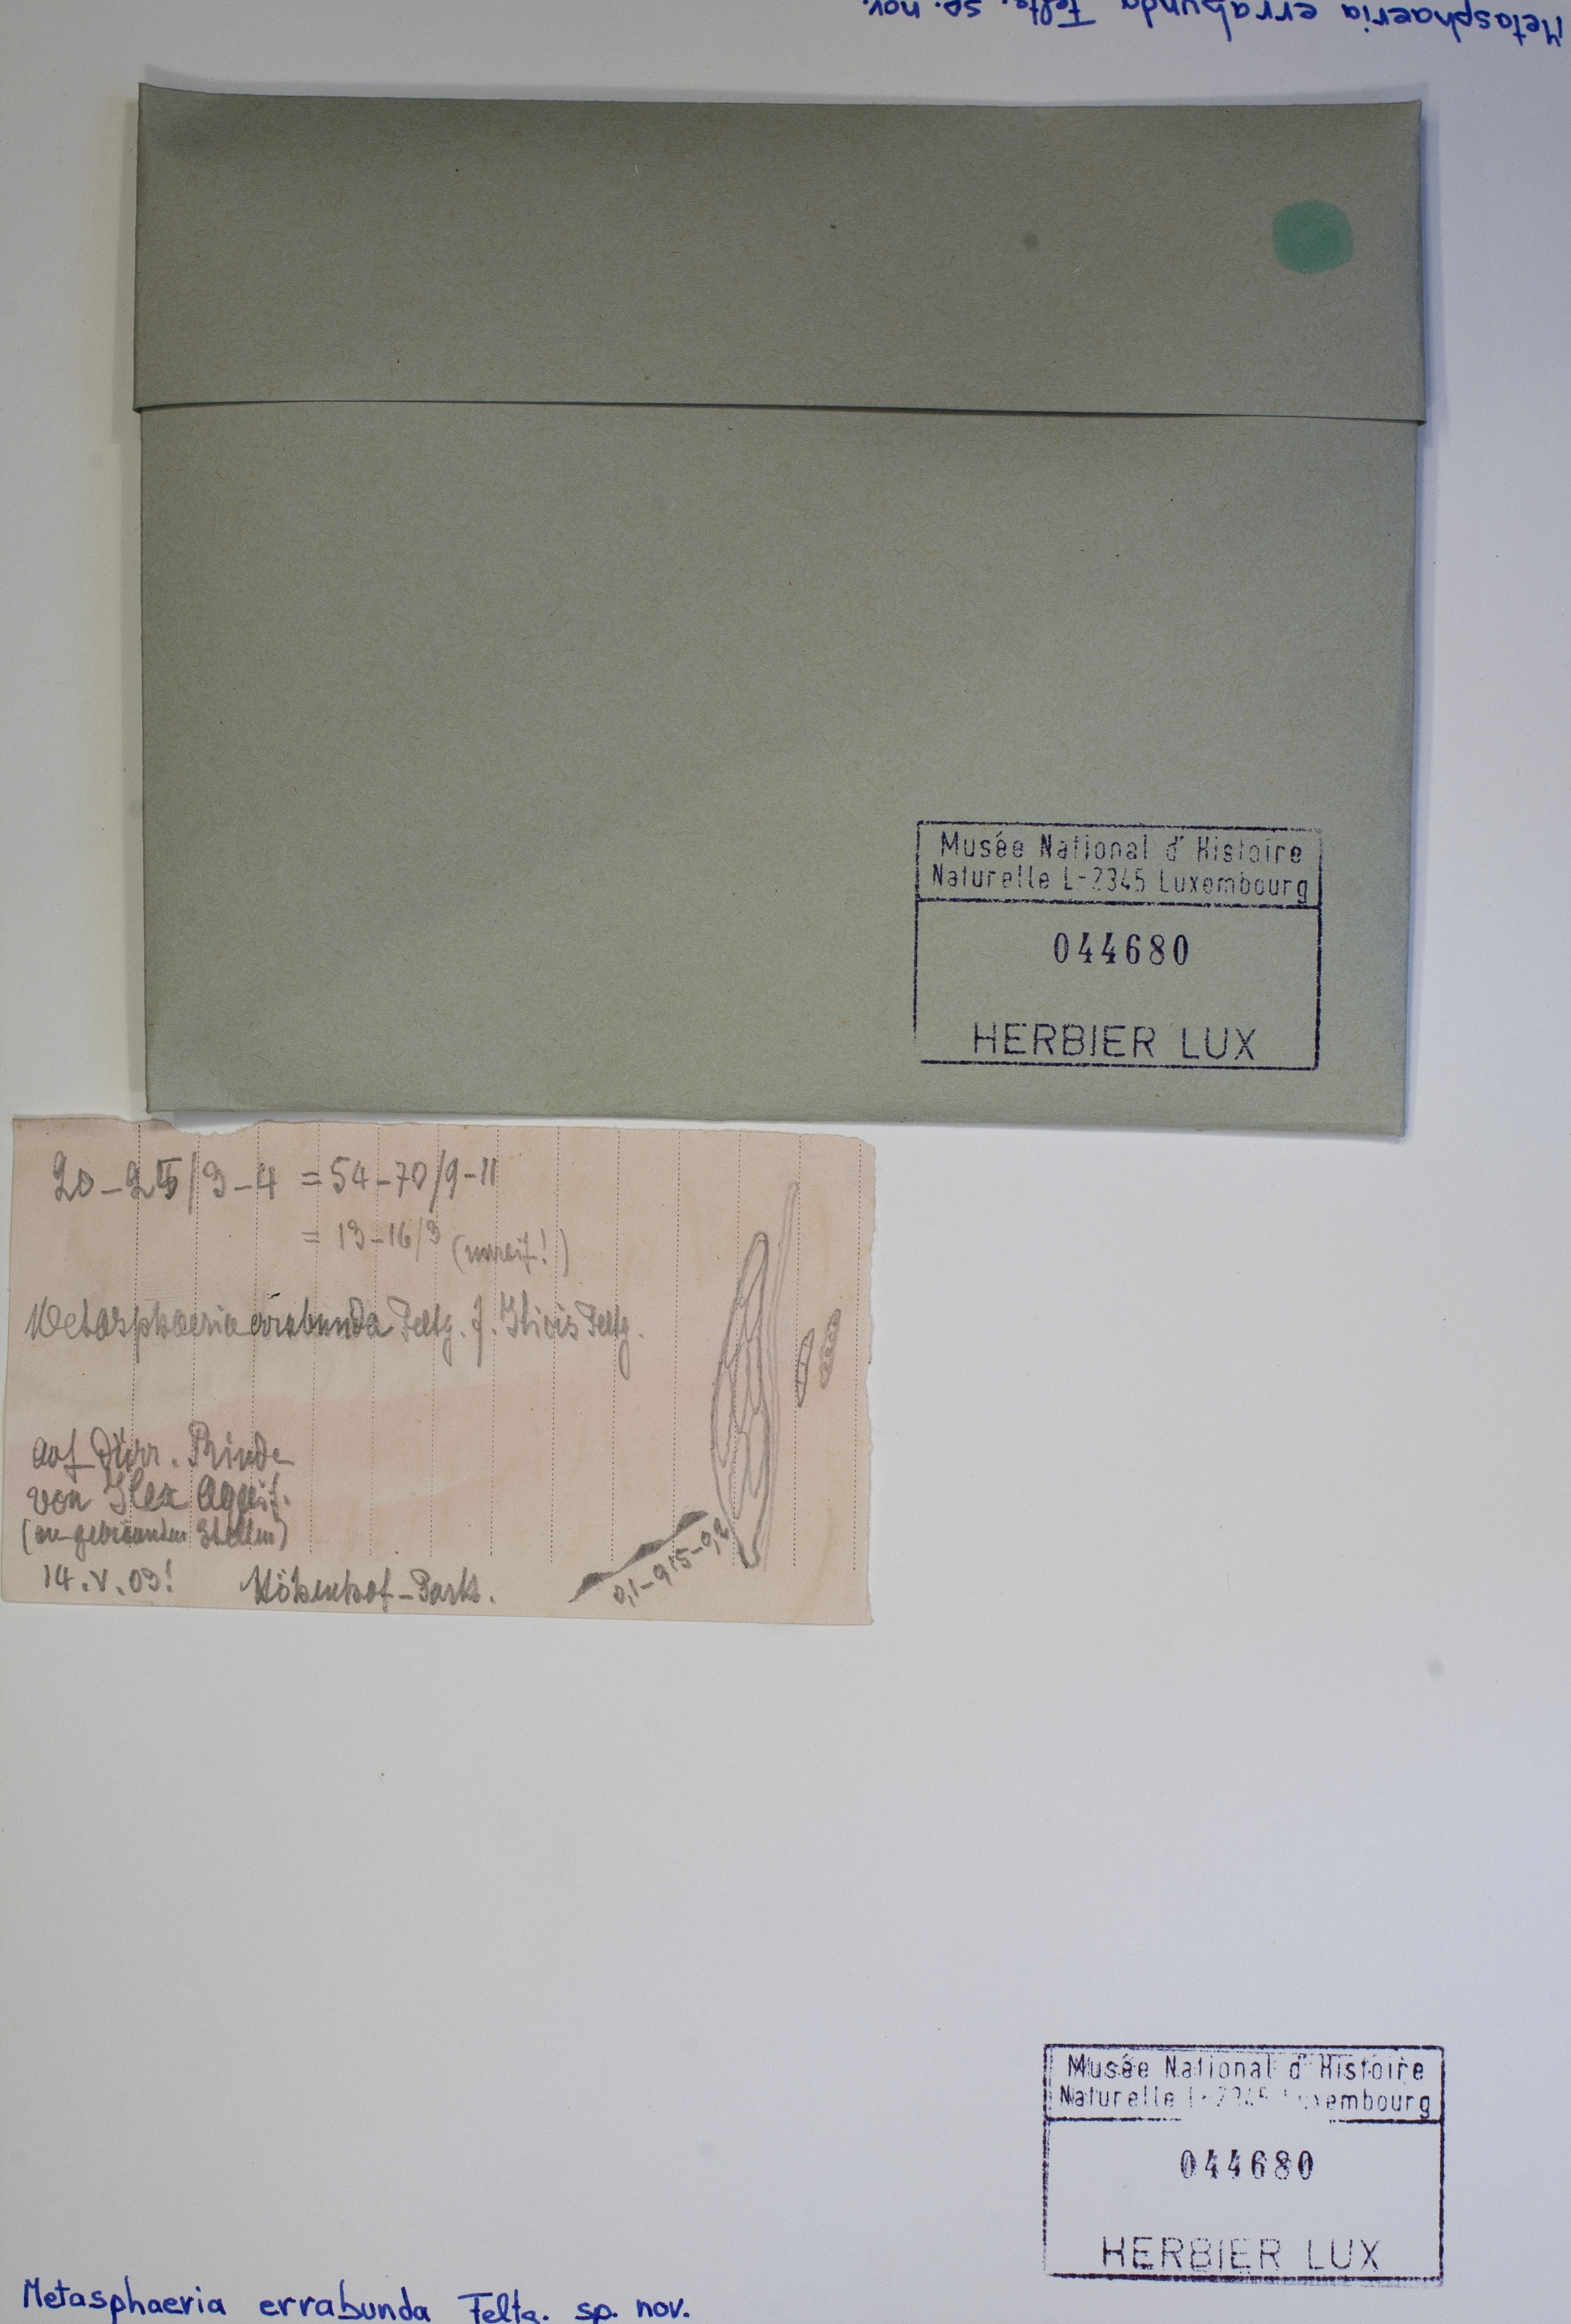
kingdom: Fungi
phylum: Ascomycota
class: Dothideomycetes
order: Dothideales
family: Saccotheciaceae
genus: Metasphaeria
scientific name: Metasphaeria errabunda
